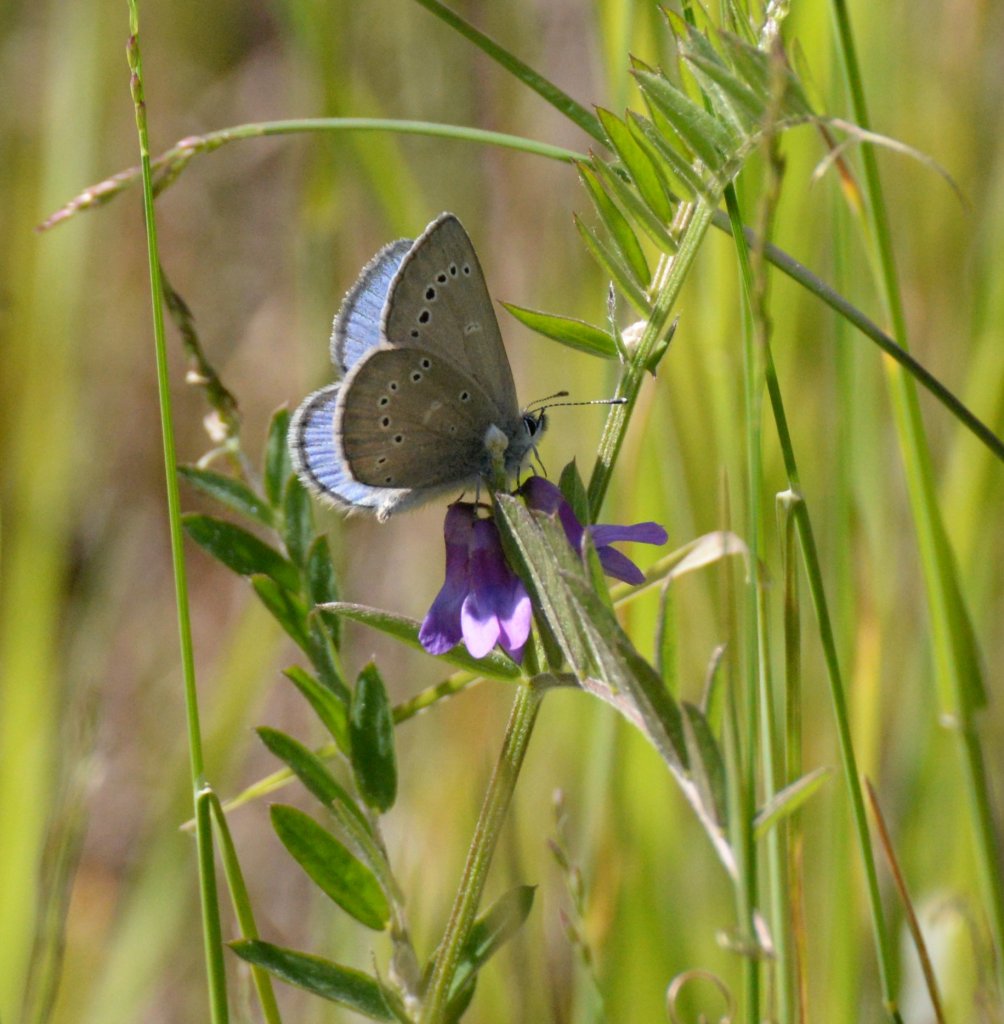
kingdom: Animalia
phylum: Arthropoda
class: Insecta
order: Lepidoptera
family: Lycaenidae
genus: Glaucopsyche
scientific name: Glaucopsyche lygdamus
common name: Silvery Blue
